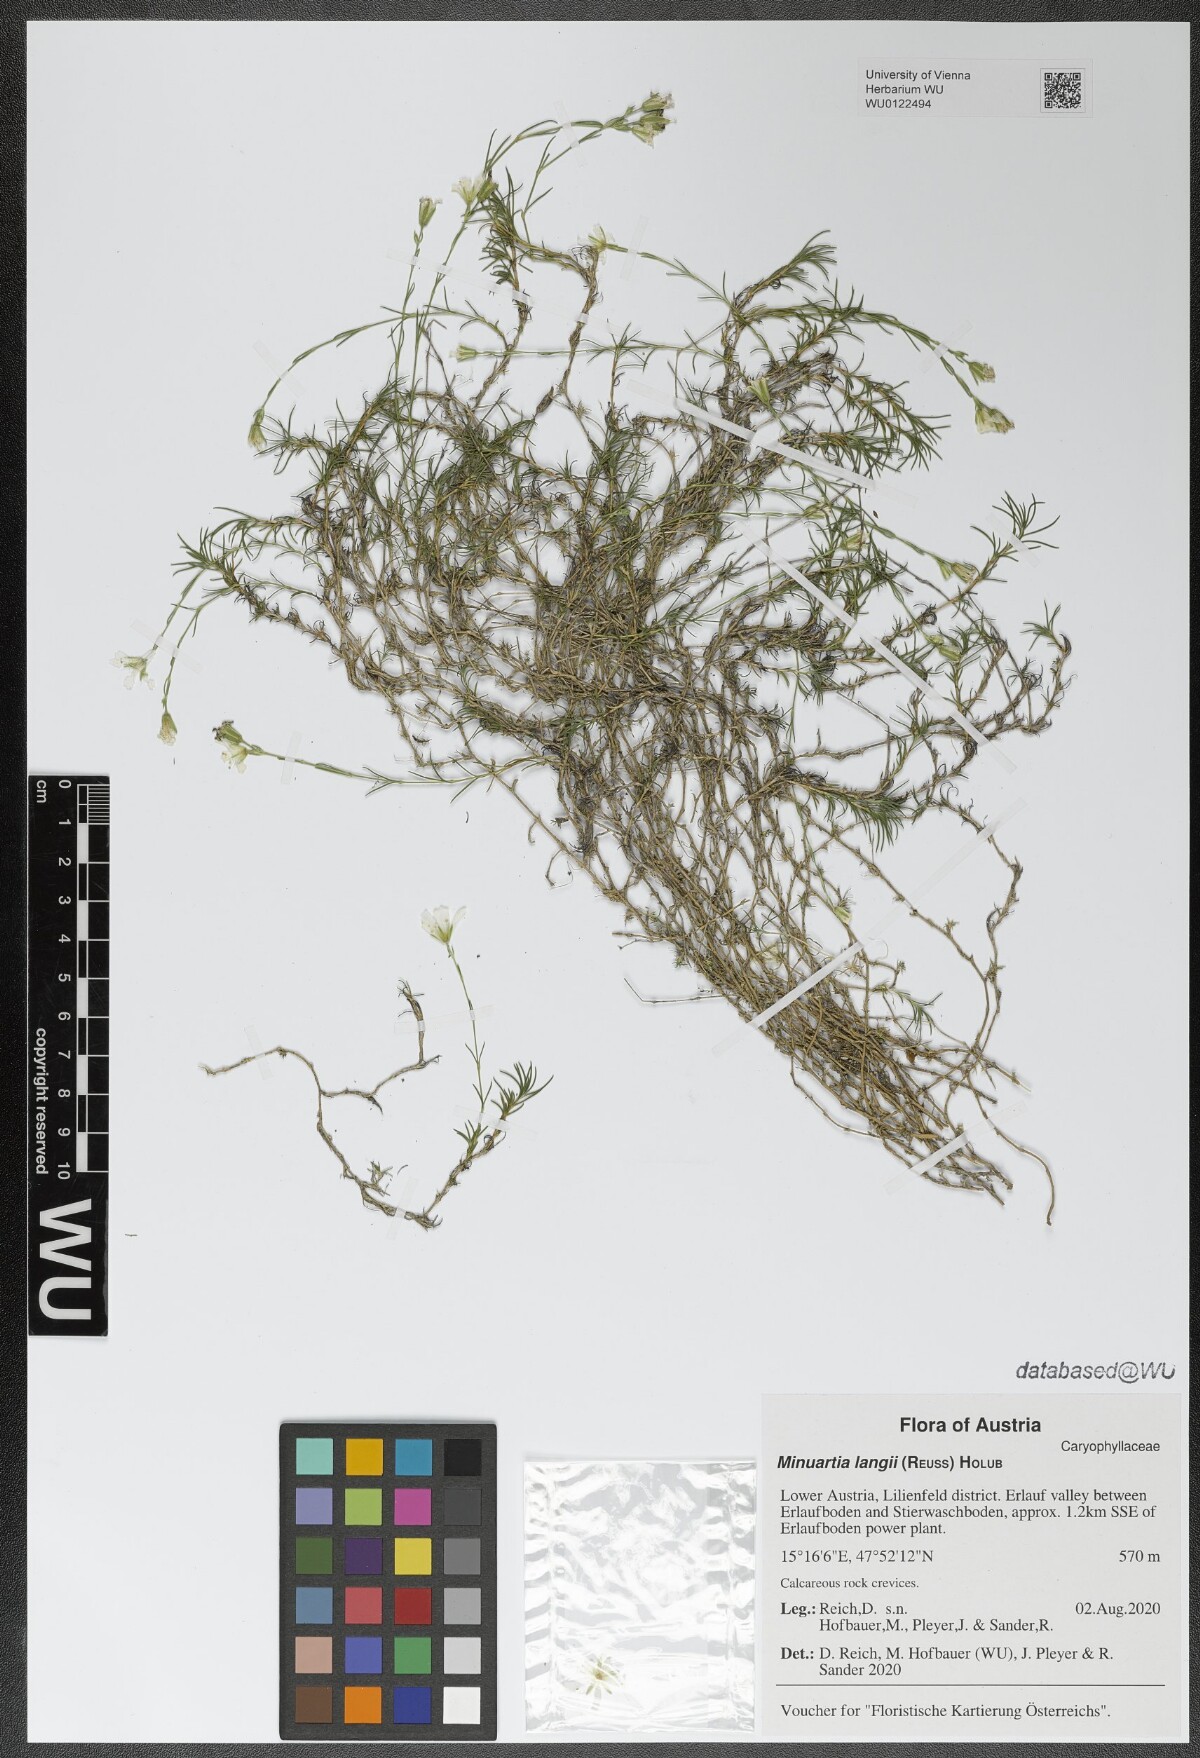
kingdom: Plantae
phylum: Tracheophyta
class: Magnoliopsida
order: Caryophyllales
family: Caryophyllaceae
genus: Cherleria
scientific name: Cherleria langii
